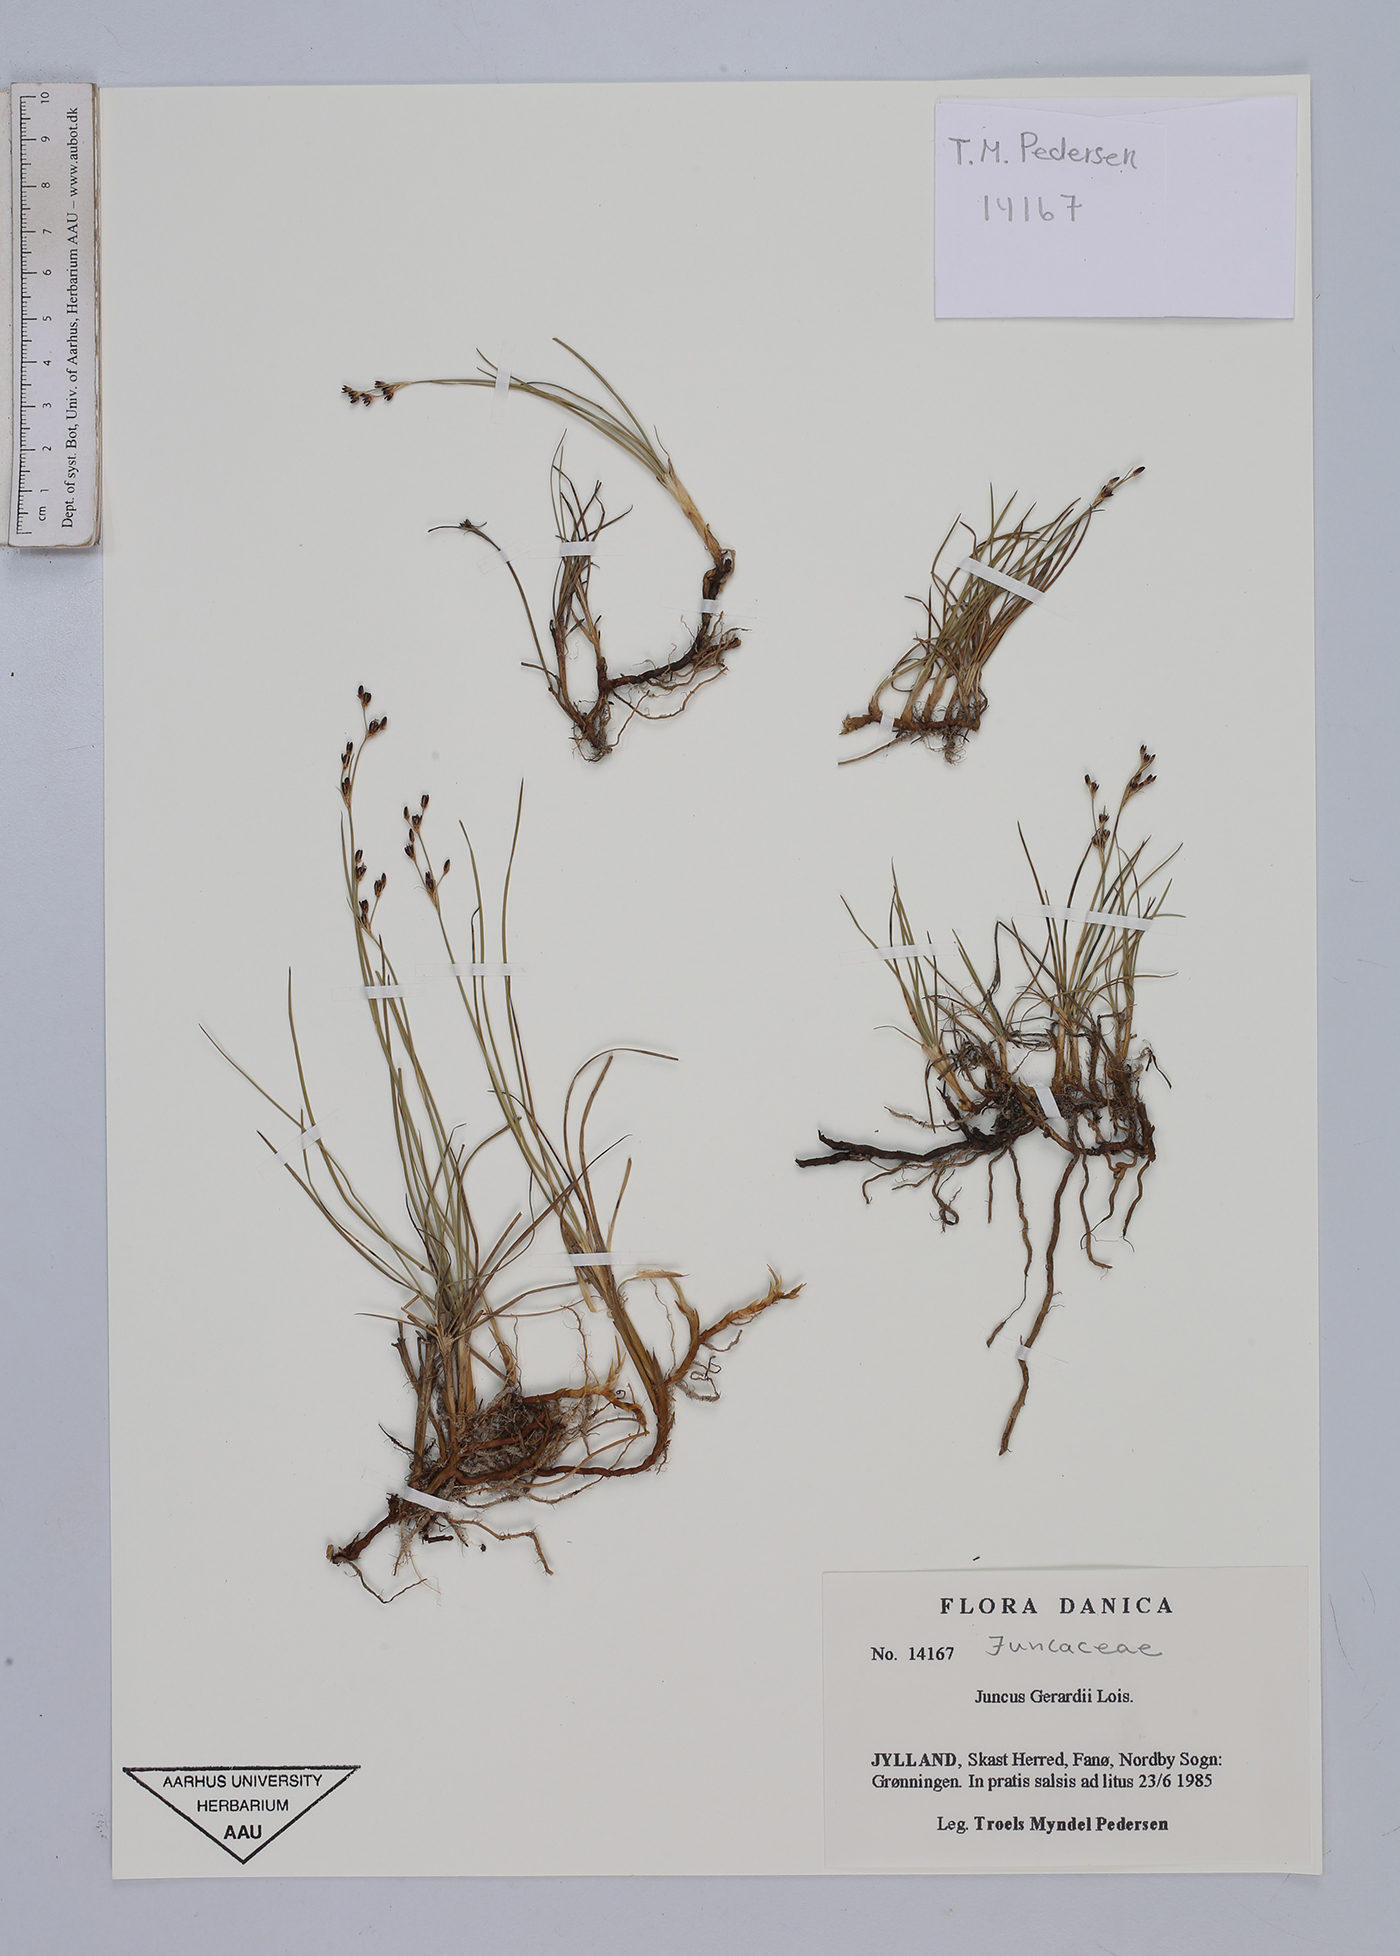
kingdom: Plantae
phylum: Tracheophyta
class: Liliopsida
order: Poales
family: Juncaceae
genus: Juncus
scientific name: Juncus gerardi
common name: Saltmarsh rush
